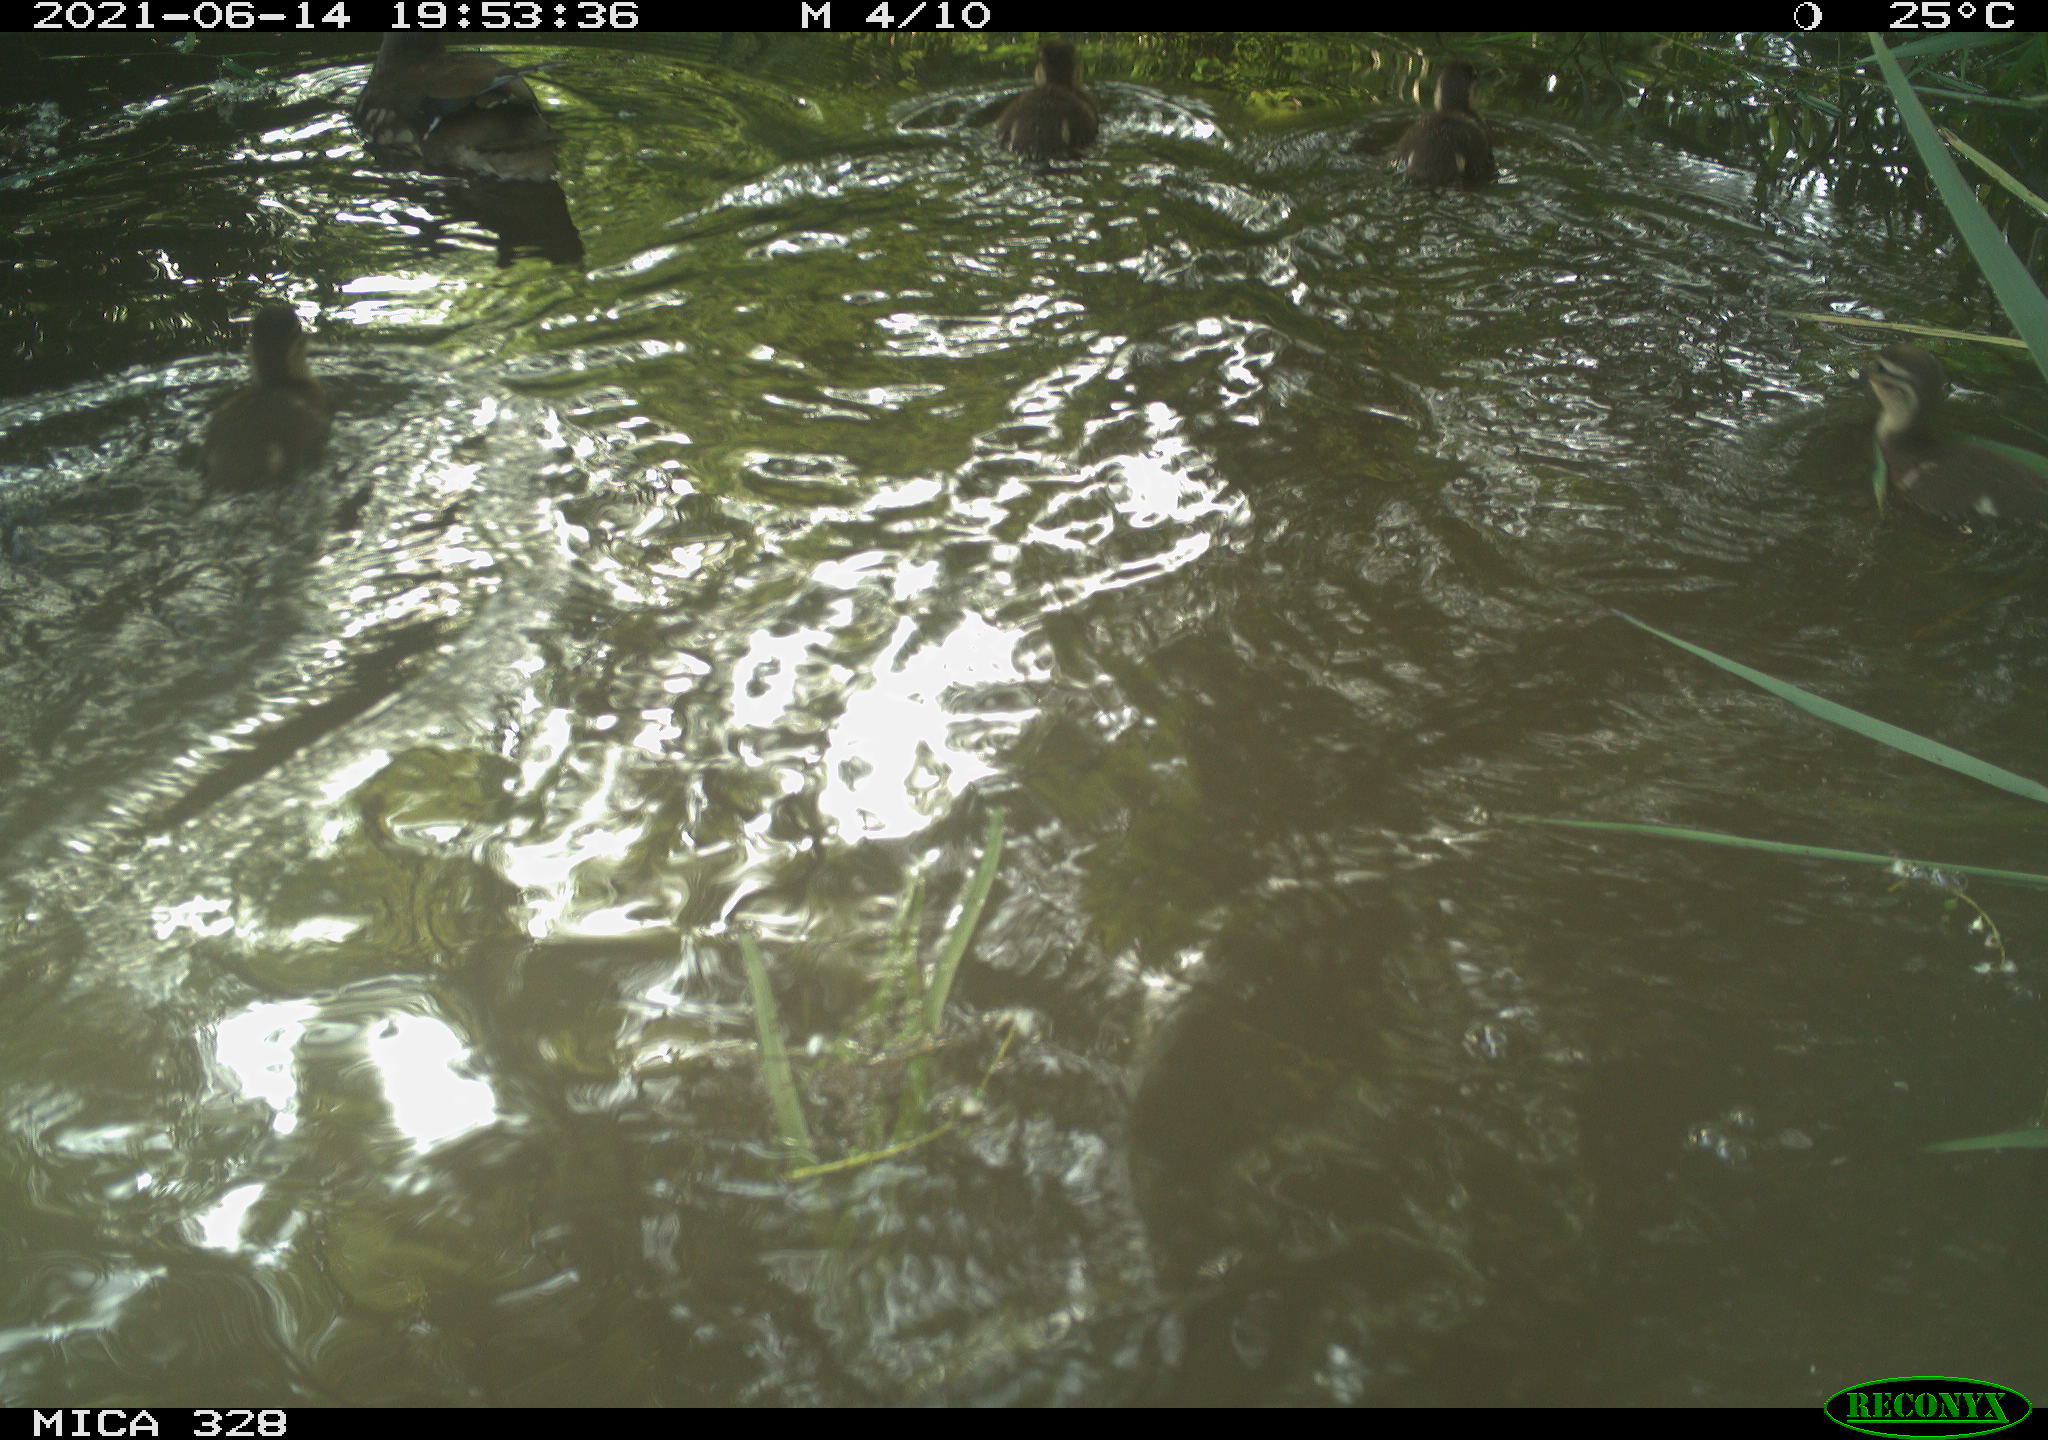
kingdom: Animalia
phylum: Chordata
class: Aves
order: Anseriformes
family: Anatidae
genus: Aix
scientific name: Aix galericulata
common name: Mandarin duck
